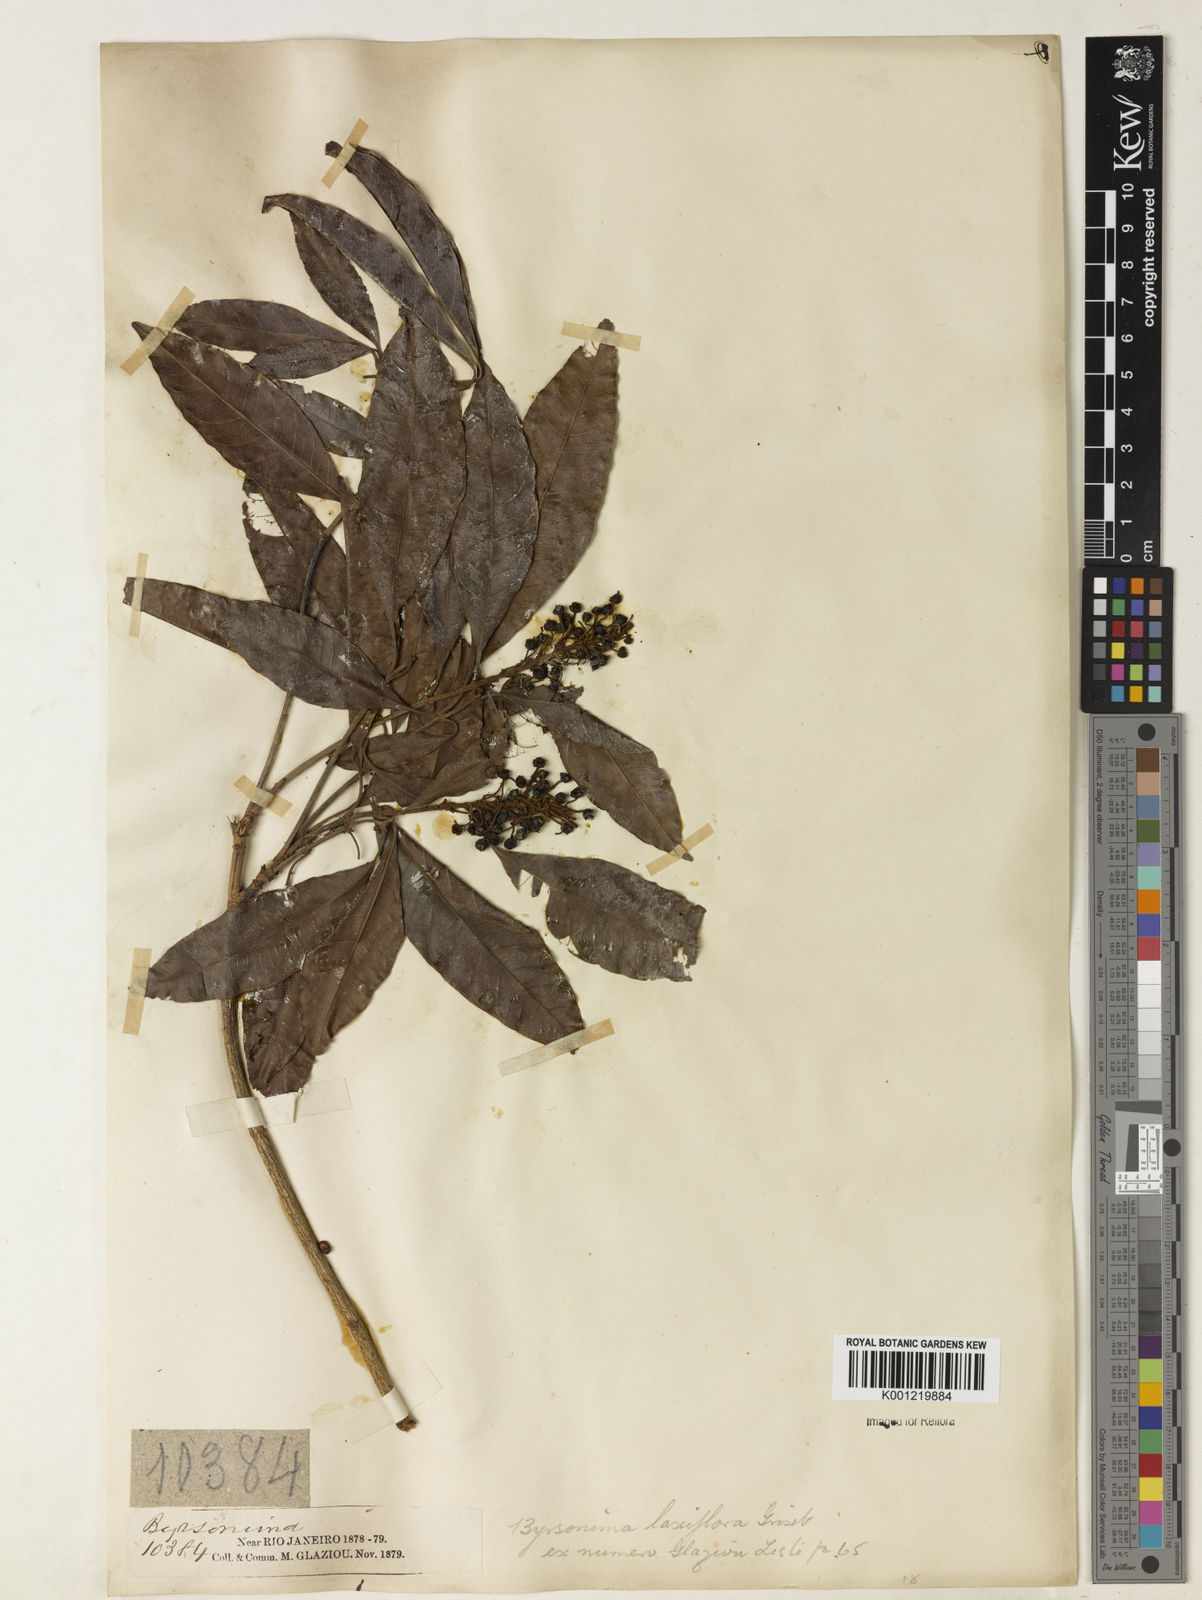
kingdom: Plantae
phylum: Tracheophyta
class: Magnoliopsida
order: Malpighiales
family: Malpighiaceae
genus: Byrsonima
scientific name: Byrsonima laxiflora
